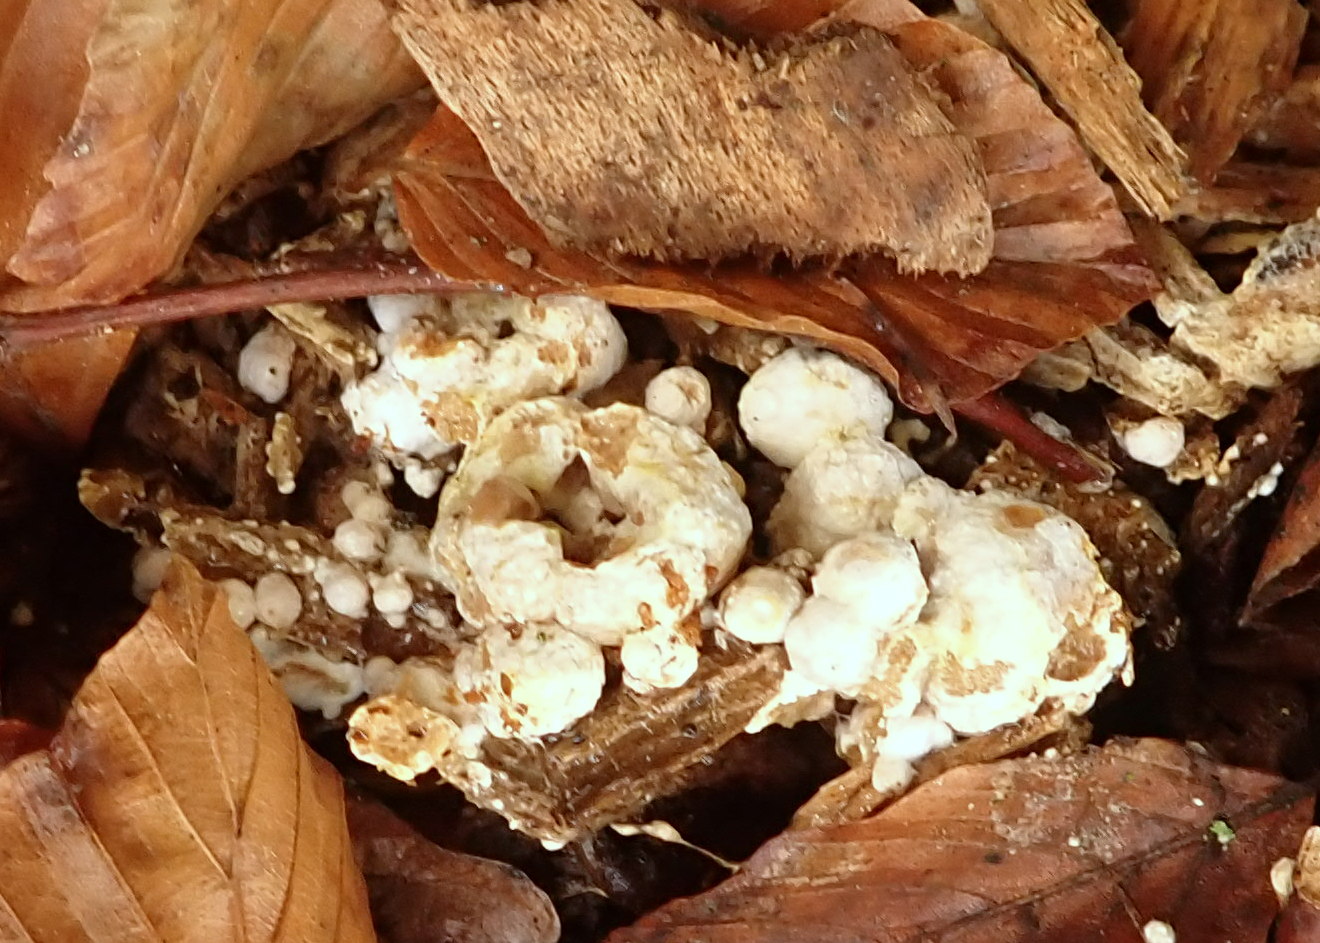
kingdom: Fungi
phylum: Ascomycota
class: Sordariomycetes
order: Xylariales
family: Hypoxylaceae
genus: Nodulisporium
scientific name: Nodulisporium cecidiogenes
